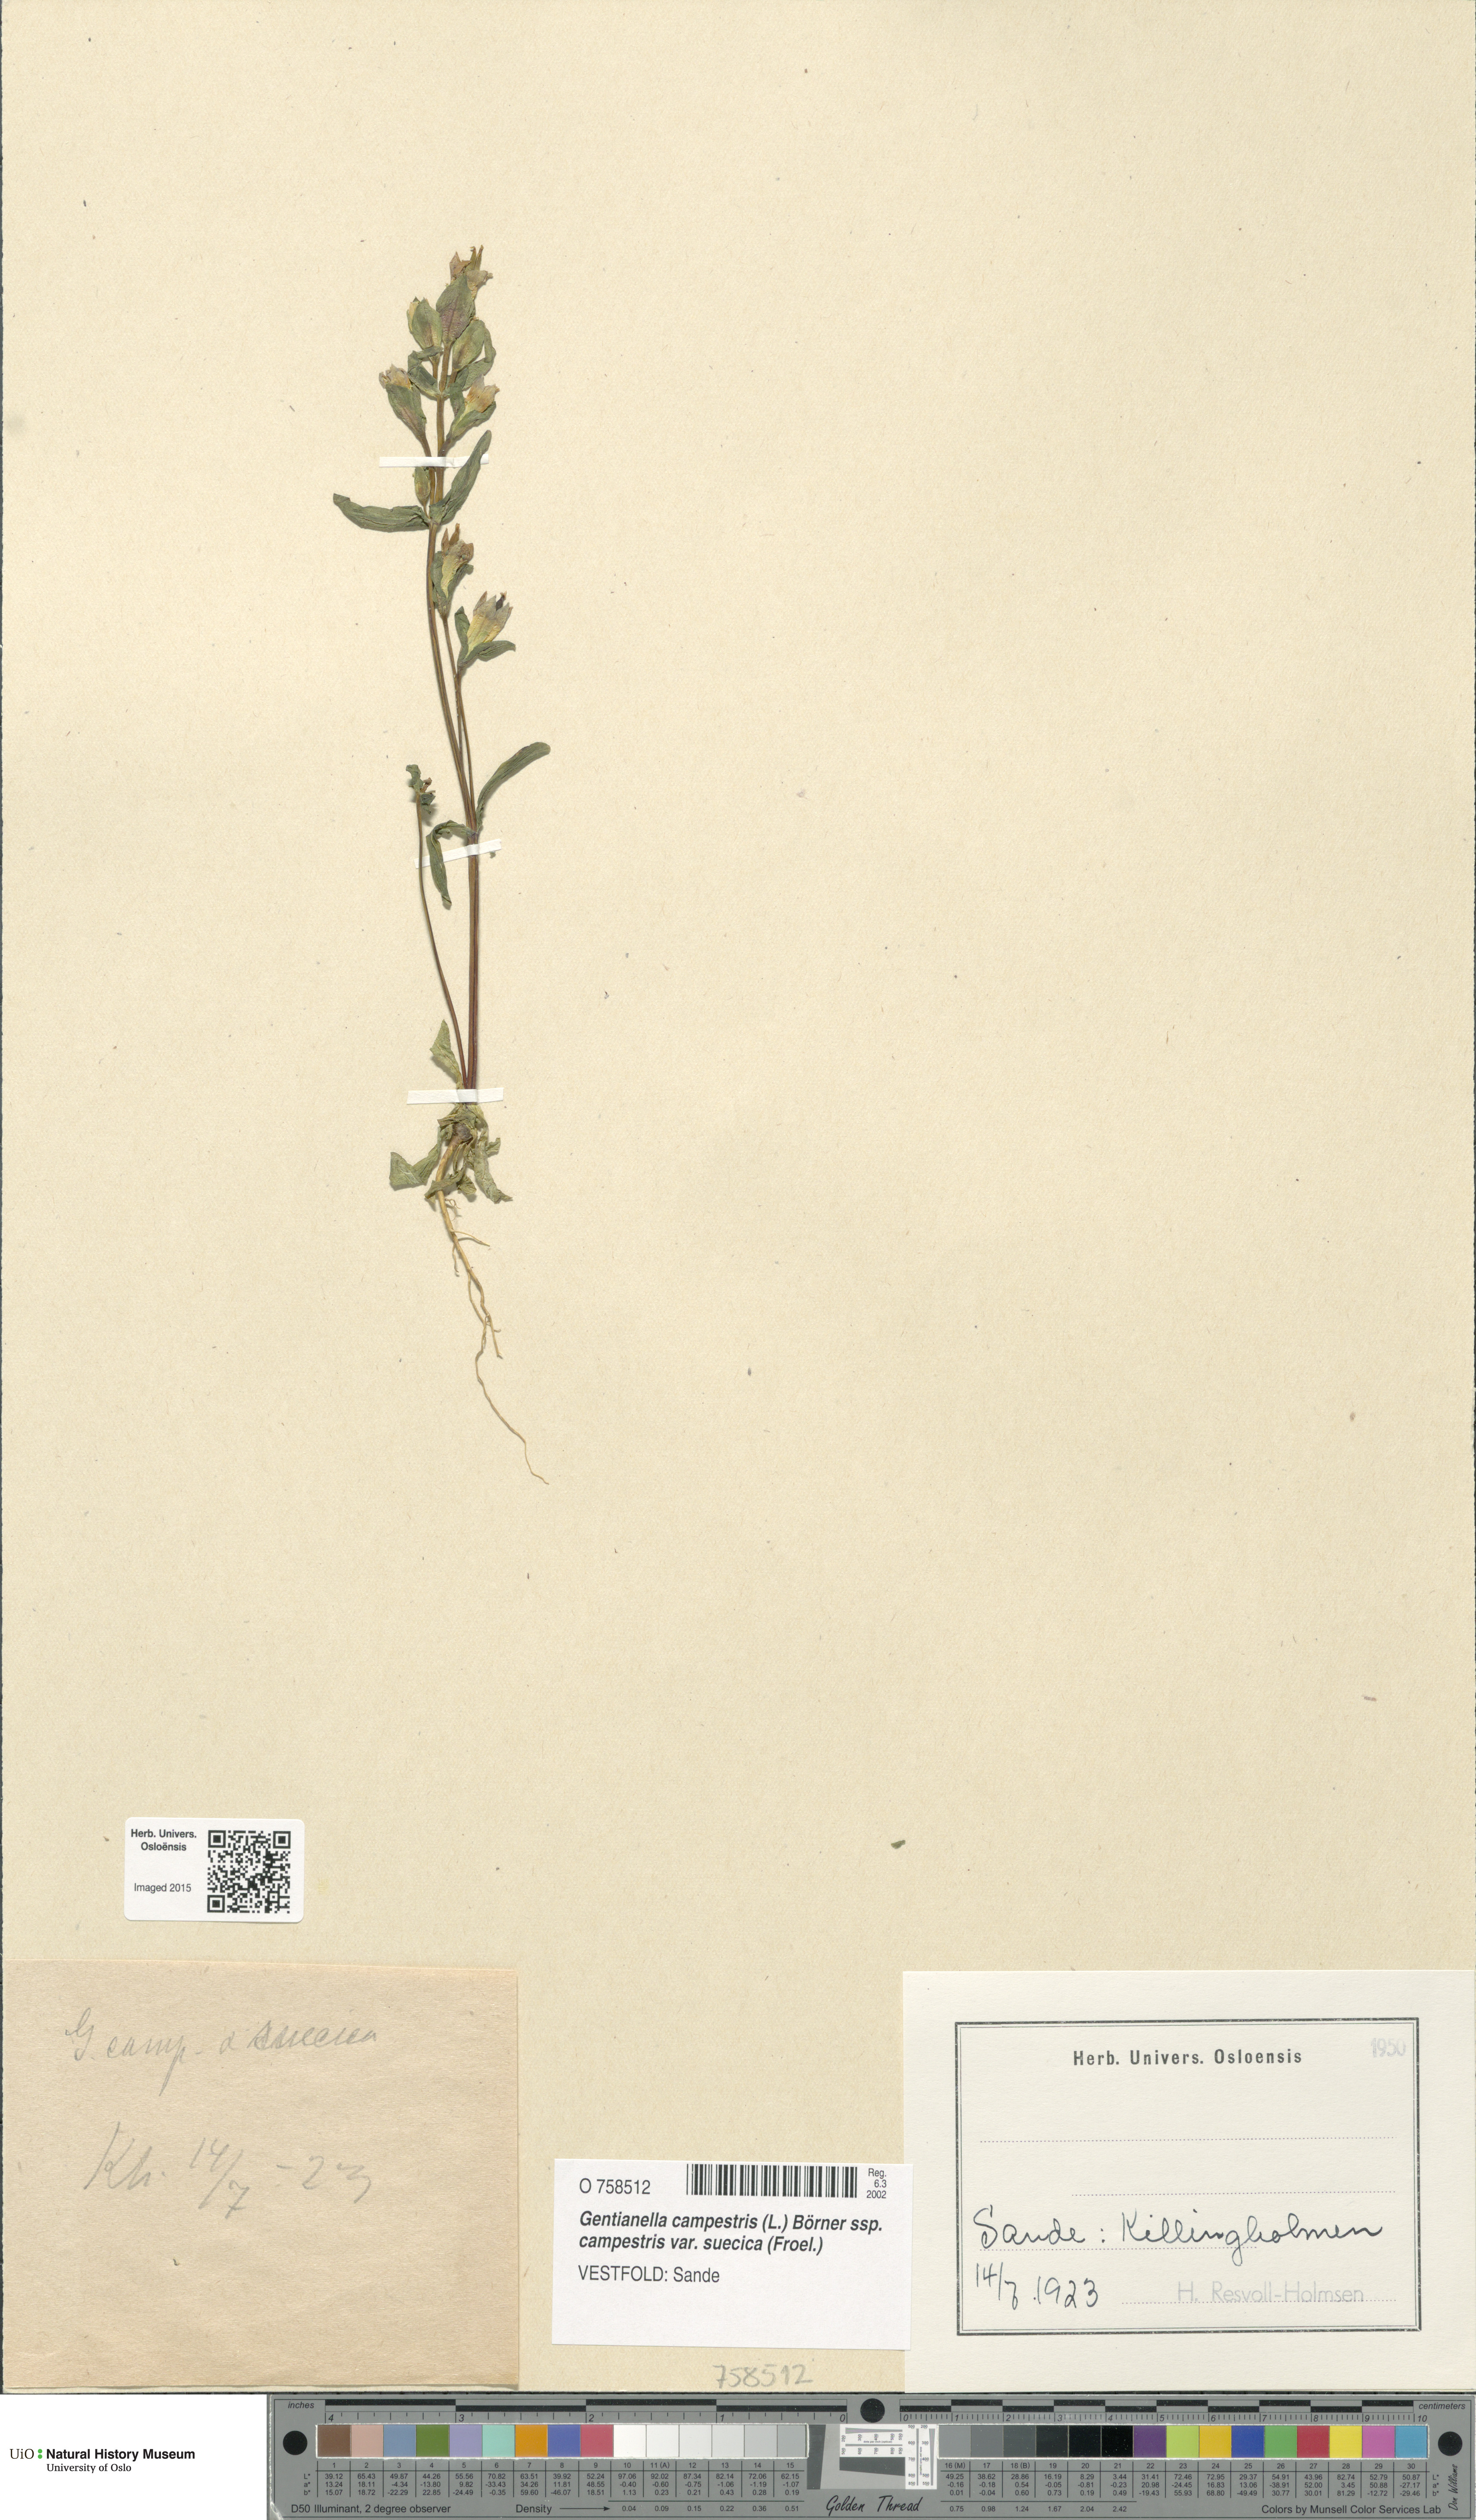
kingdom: Plantae
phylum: Tracheophyta
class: Magnoliopsida
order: Gentianales
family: Gentianaceae
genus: Gentianella
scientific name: Gentianella campestris
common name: Field gentian
